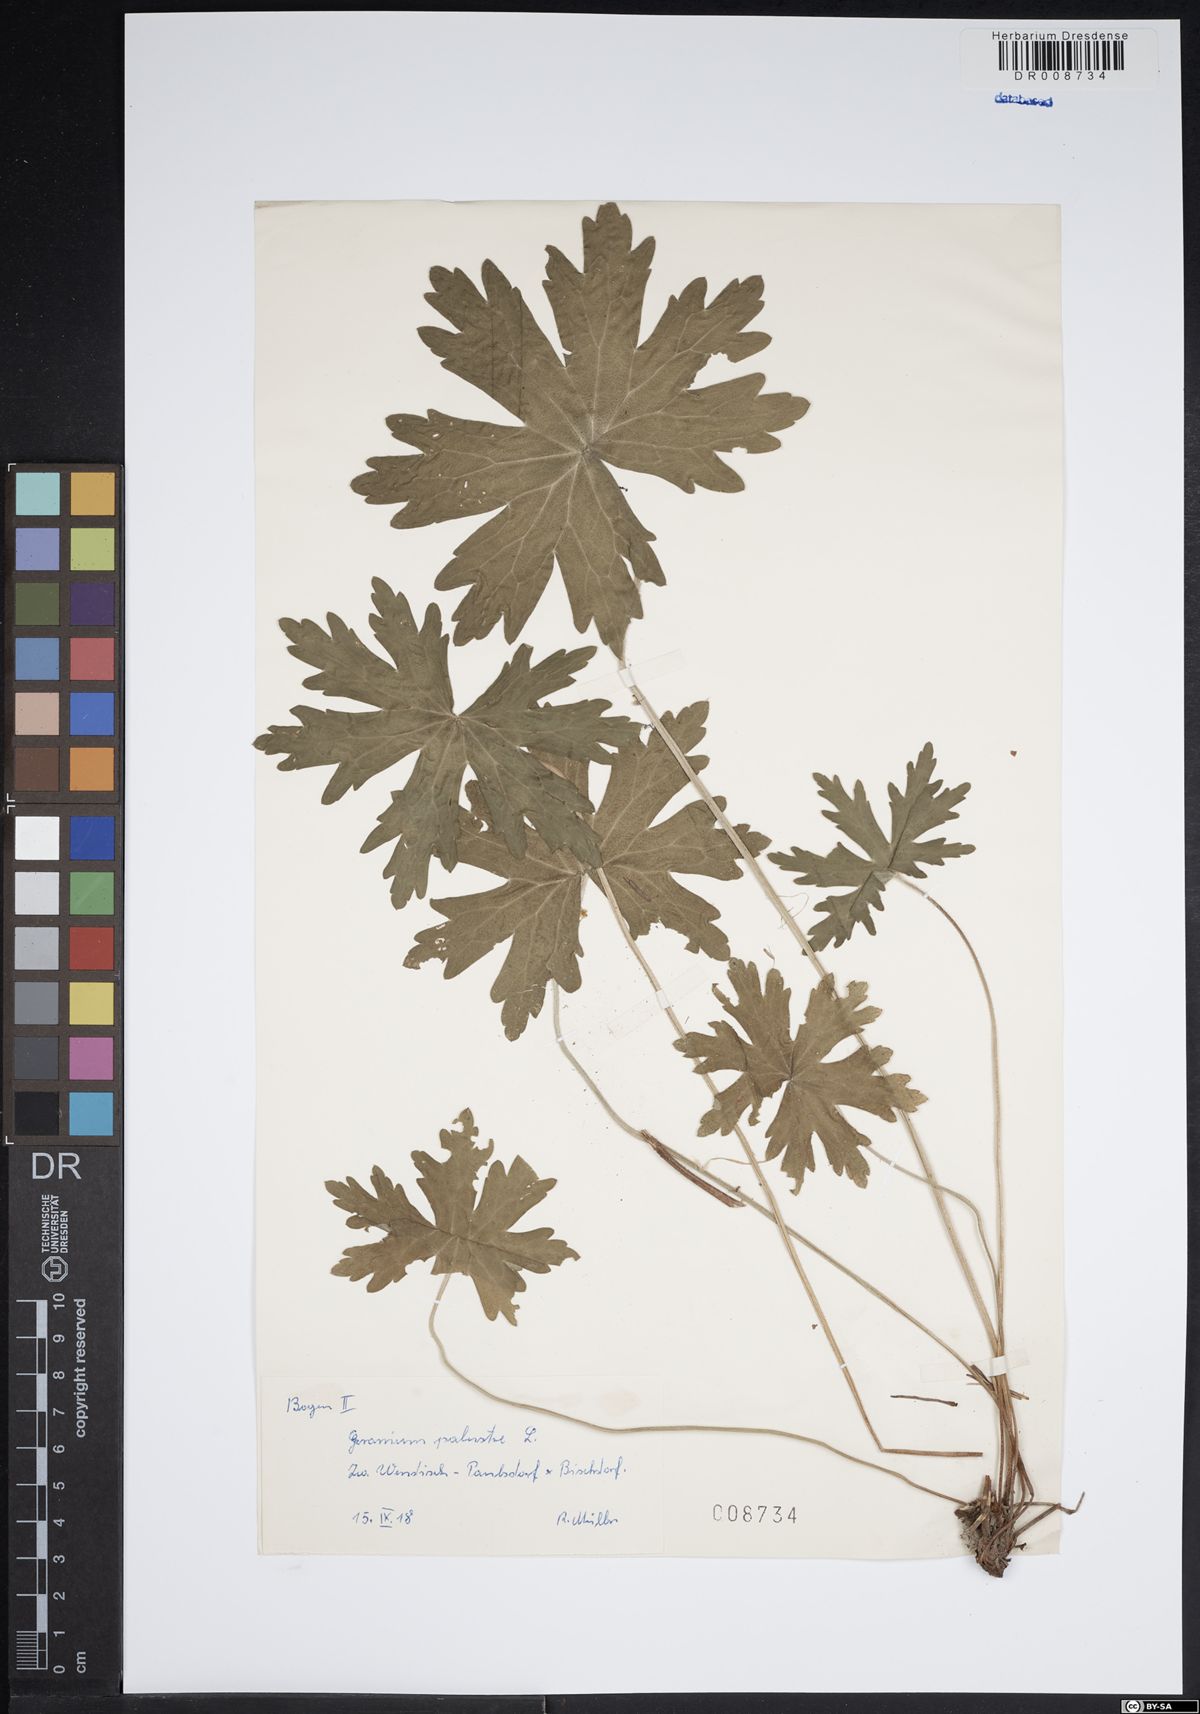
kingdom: Plantae
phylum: Tracheophyta
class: Magnoliopsida
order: Geraniales
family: Geraniaceae
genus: Geranium
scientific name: Geranium palustre
